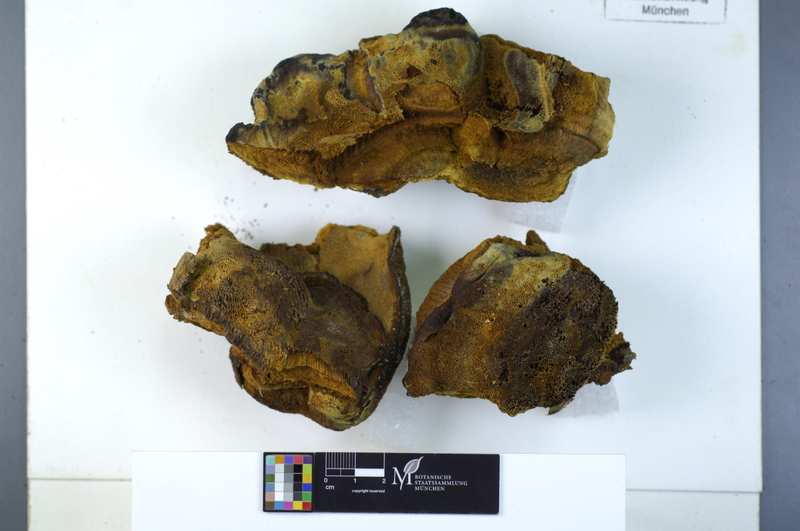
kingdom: Plantae
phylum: Tracheophyta
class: Magnoliopsida
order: Rosales
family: Rosaceae
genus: Malus
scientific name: Malus
